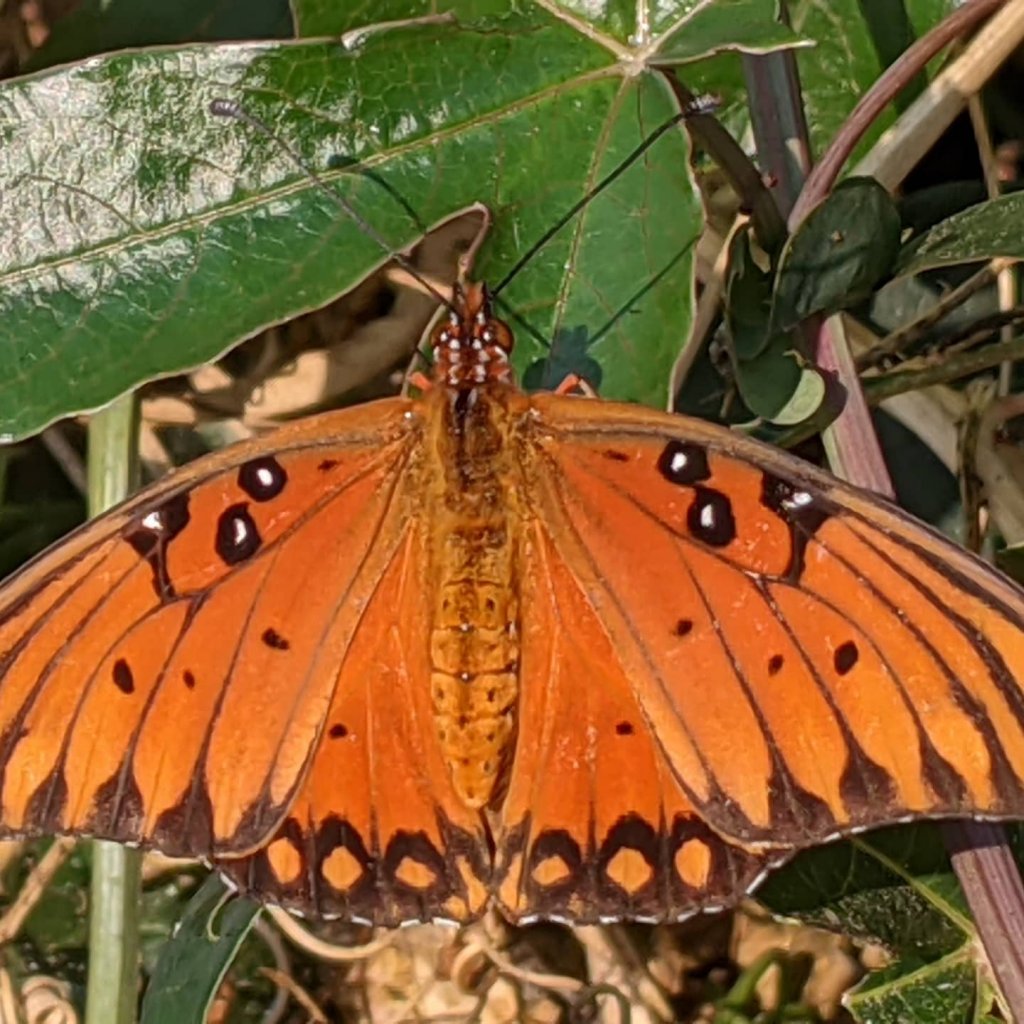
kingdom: Animalia
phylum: Arthropoda
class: Insecta
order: Lepidoptera
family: Nymphalidae
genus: Dione
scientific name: Dione vanillae
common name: Gulf Fritillary
